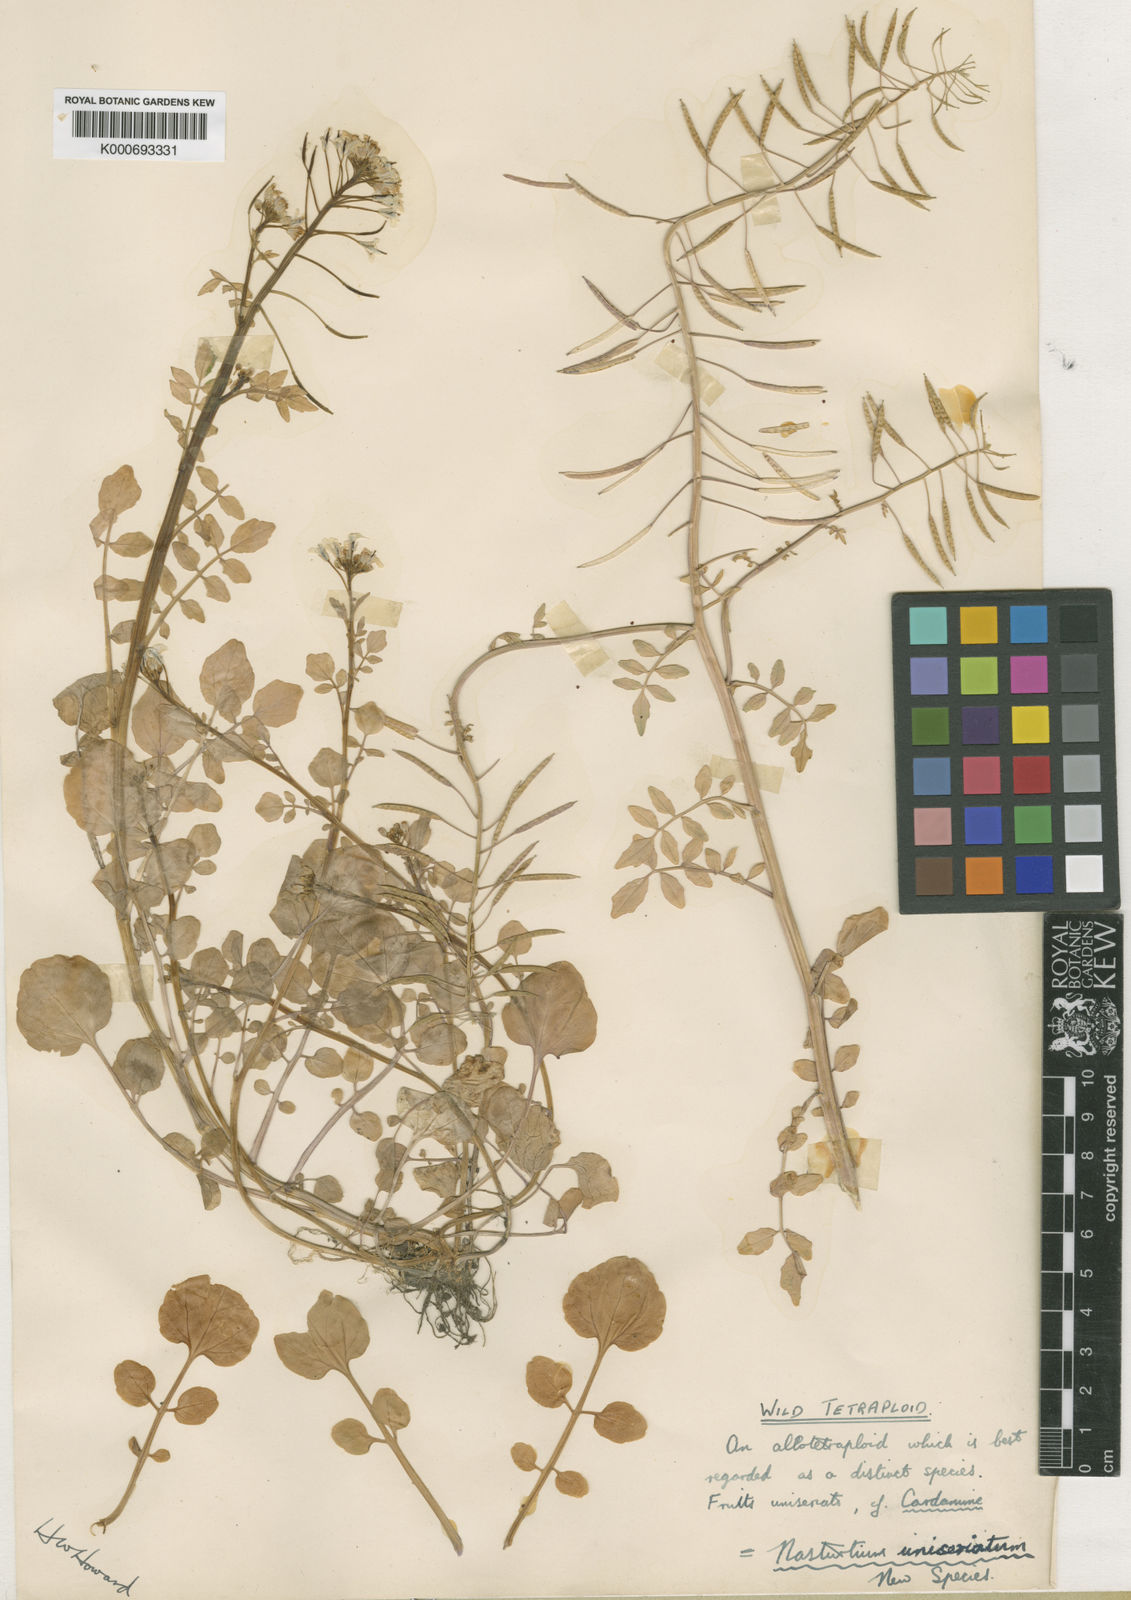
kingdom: Plantae
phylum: Tracheophyta
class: Magnoliopsida
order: Brassicales
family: Brassicaceae
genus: Nasturtium
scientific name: Nasturtium microphyllum
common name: Onerow yellowcress
